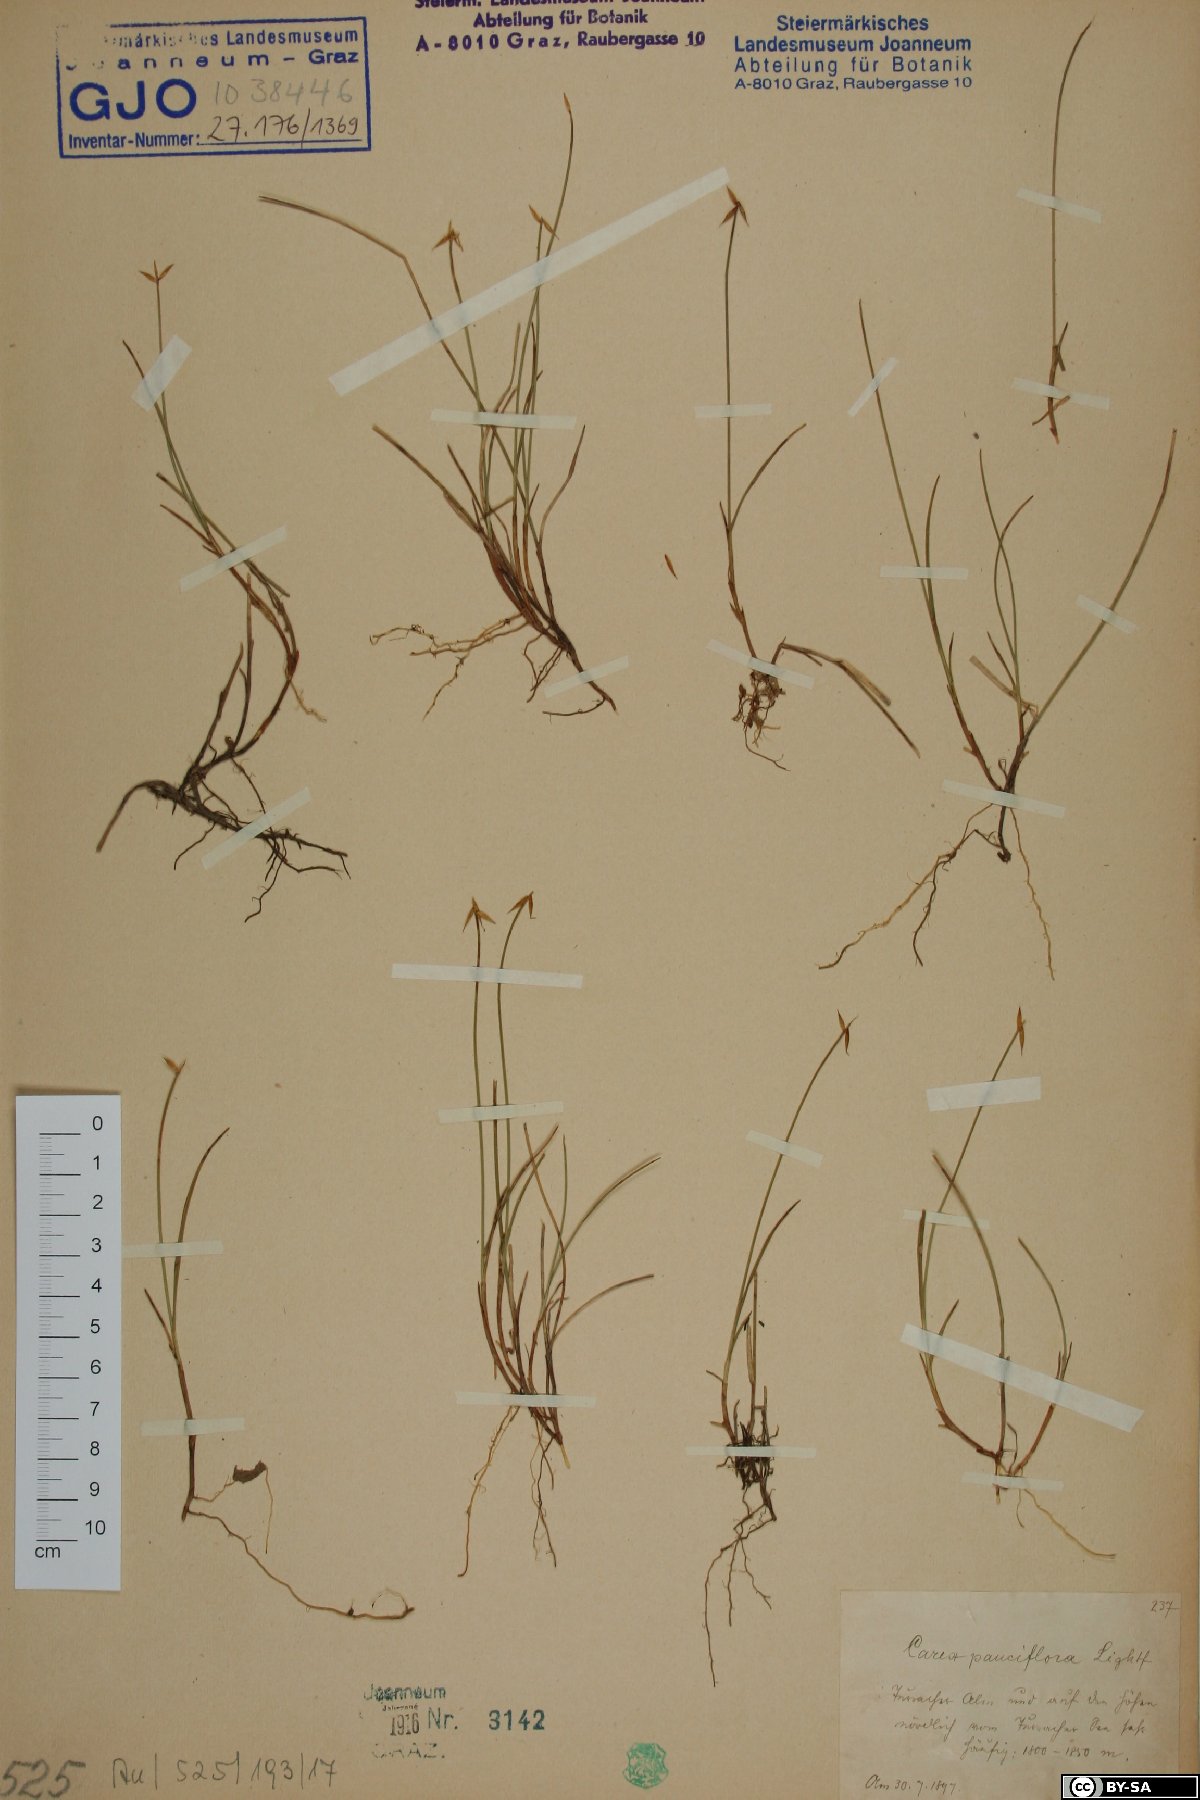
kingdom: Plantae
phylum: Tracheophyta
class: Liliopsida
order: Poales
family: Cyperaceae
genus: Carex
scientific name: Carex pauciflora
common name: Few-flowered sedge
